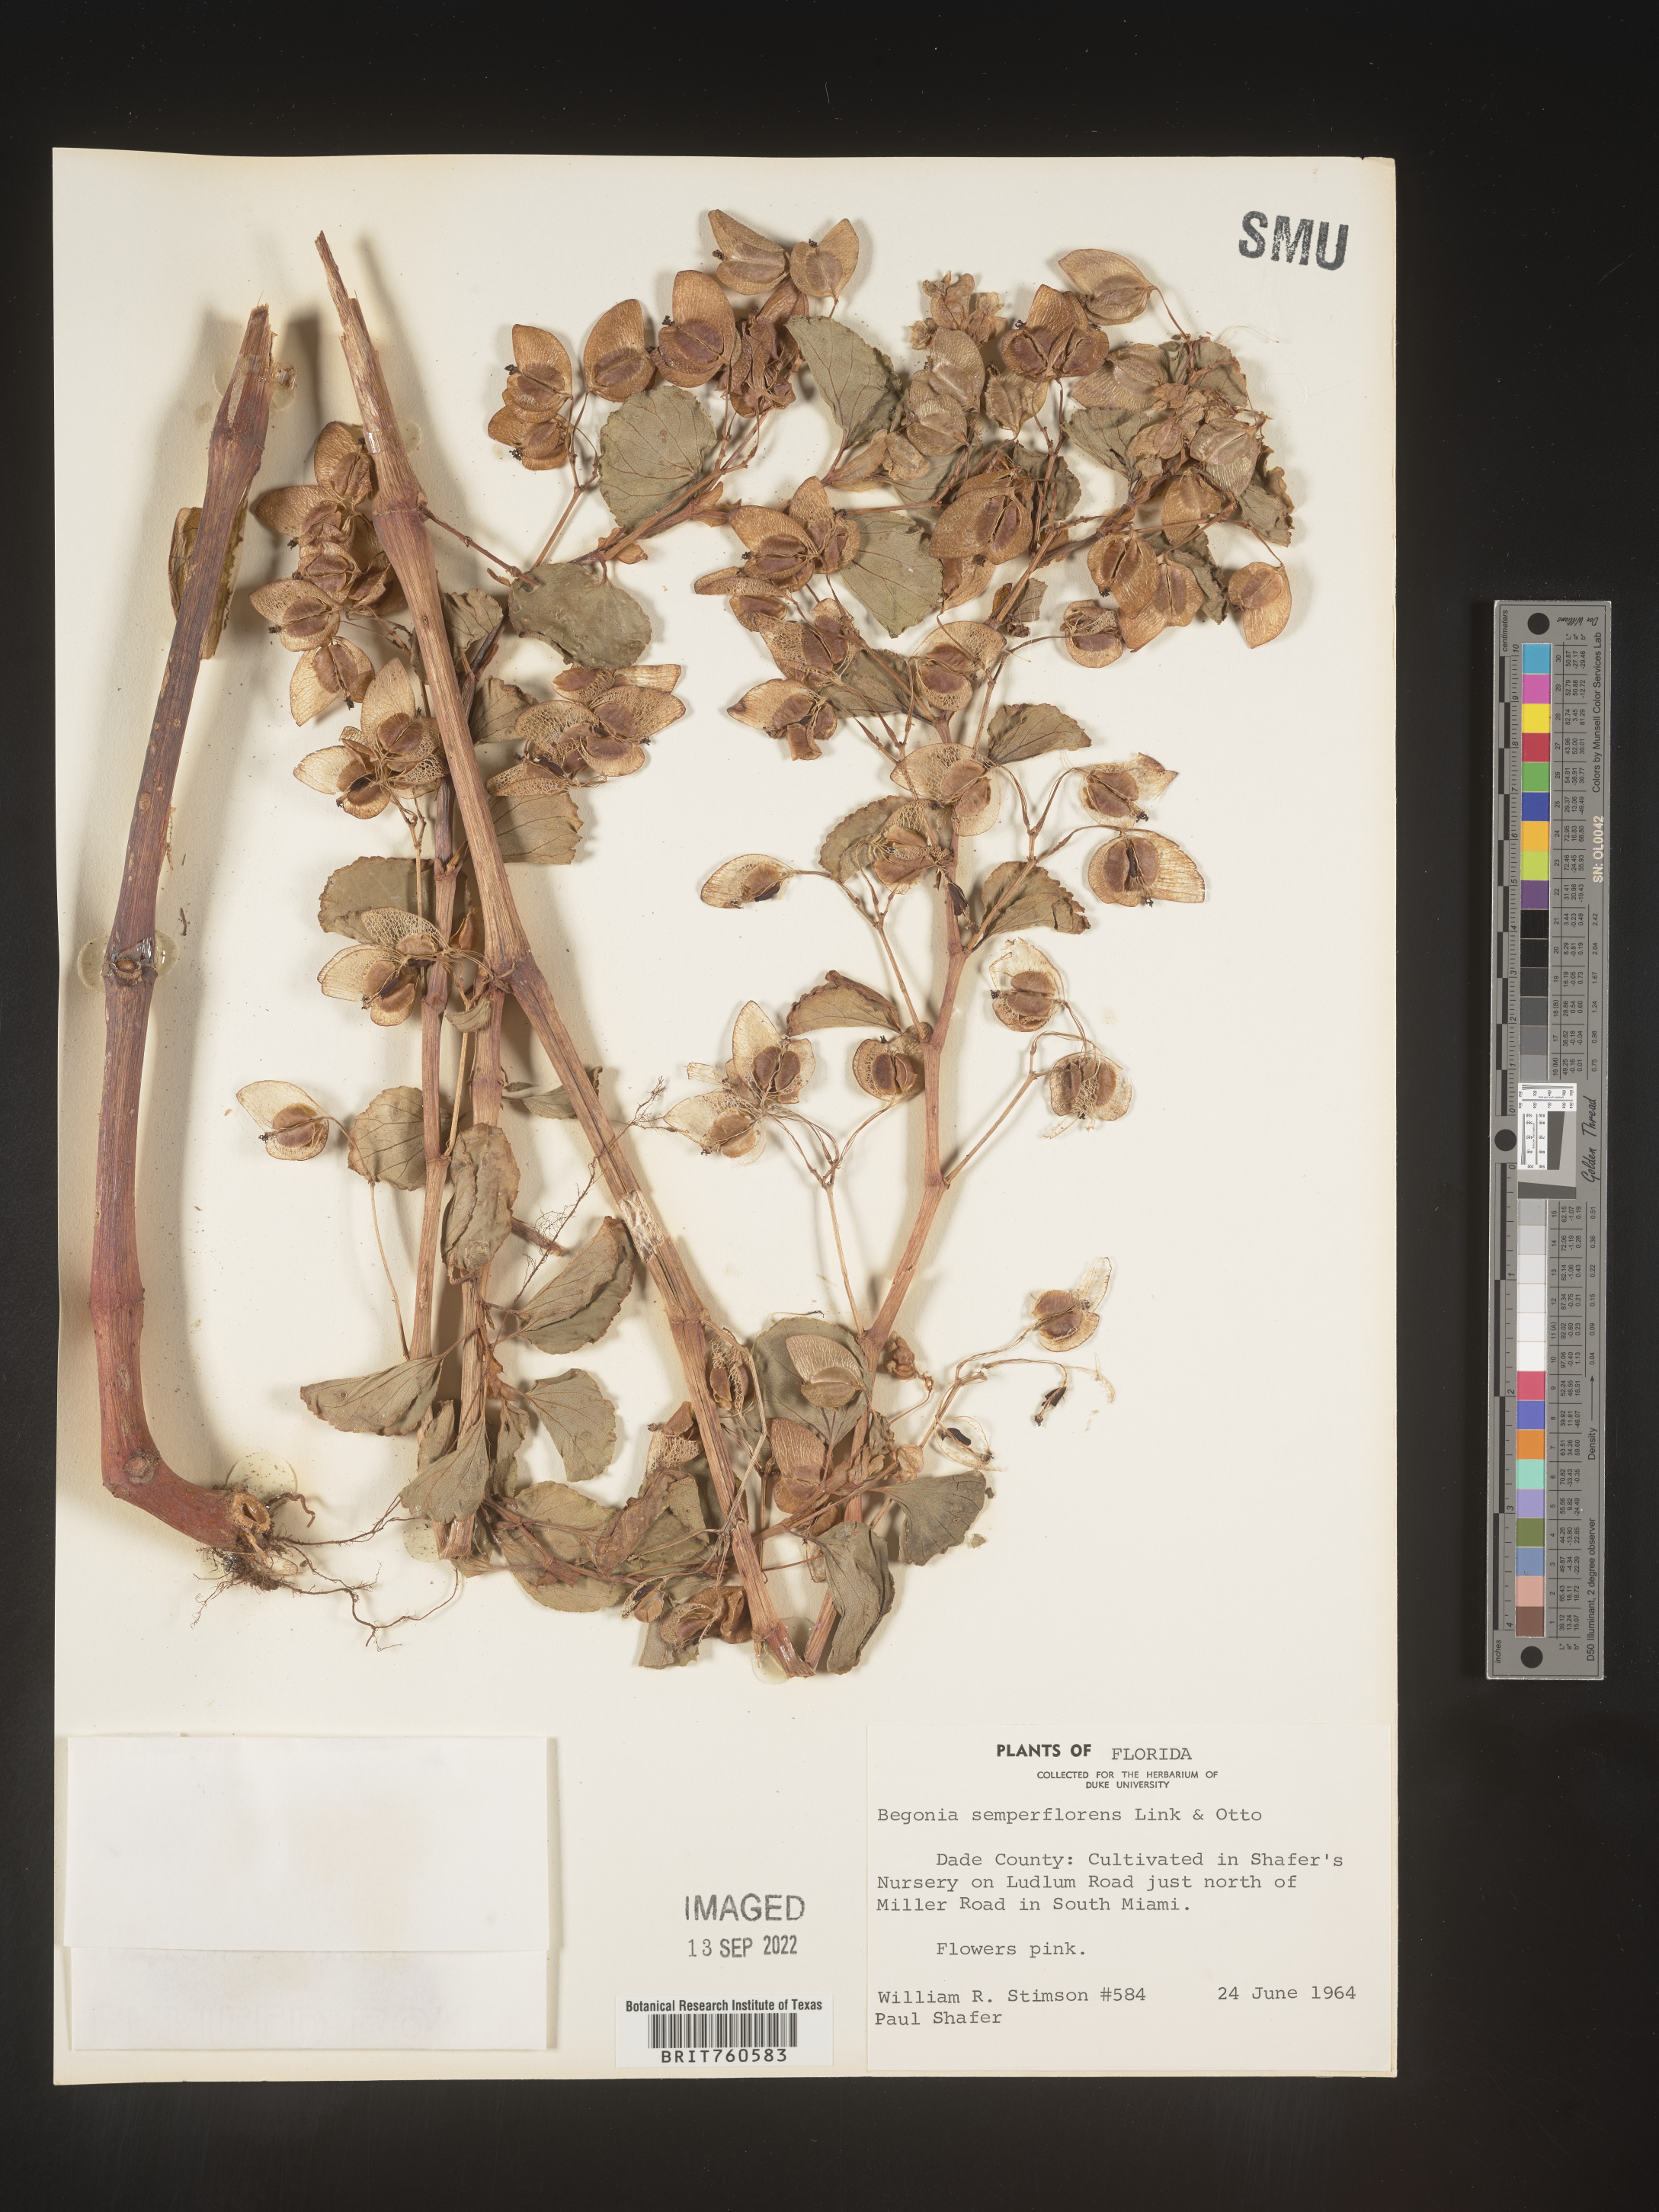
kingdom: Plantae
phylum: Tracheophyta
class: Magnoliopsida
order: Cucurbitales
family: Begoniaceae
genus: Begonia
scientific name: Begonia
